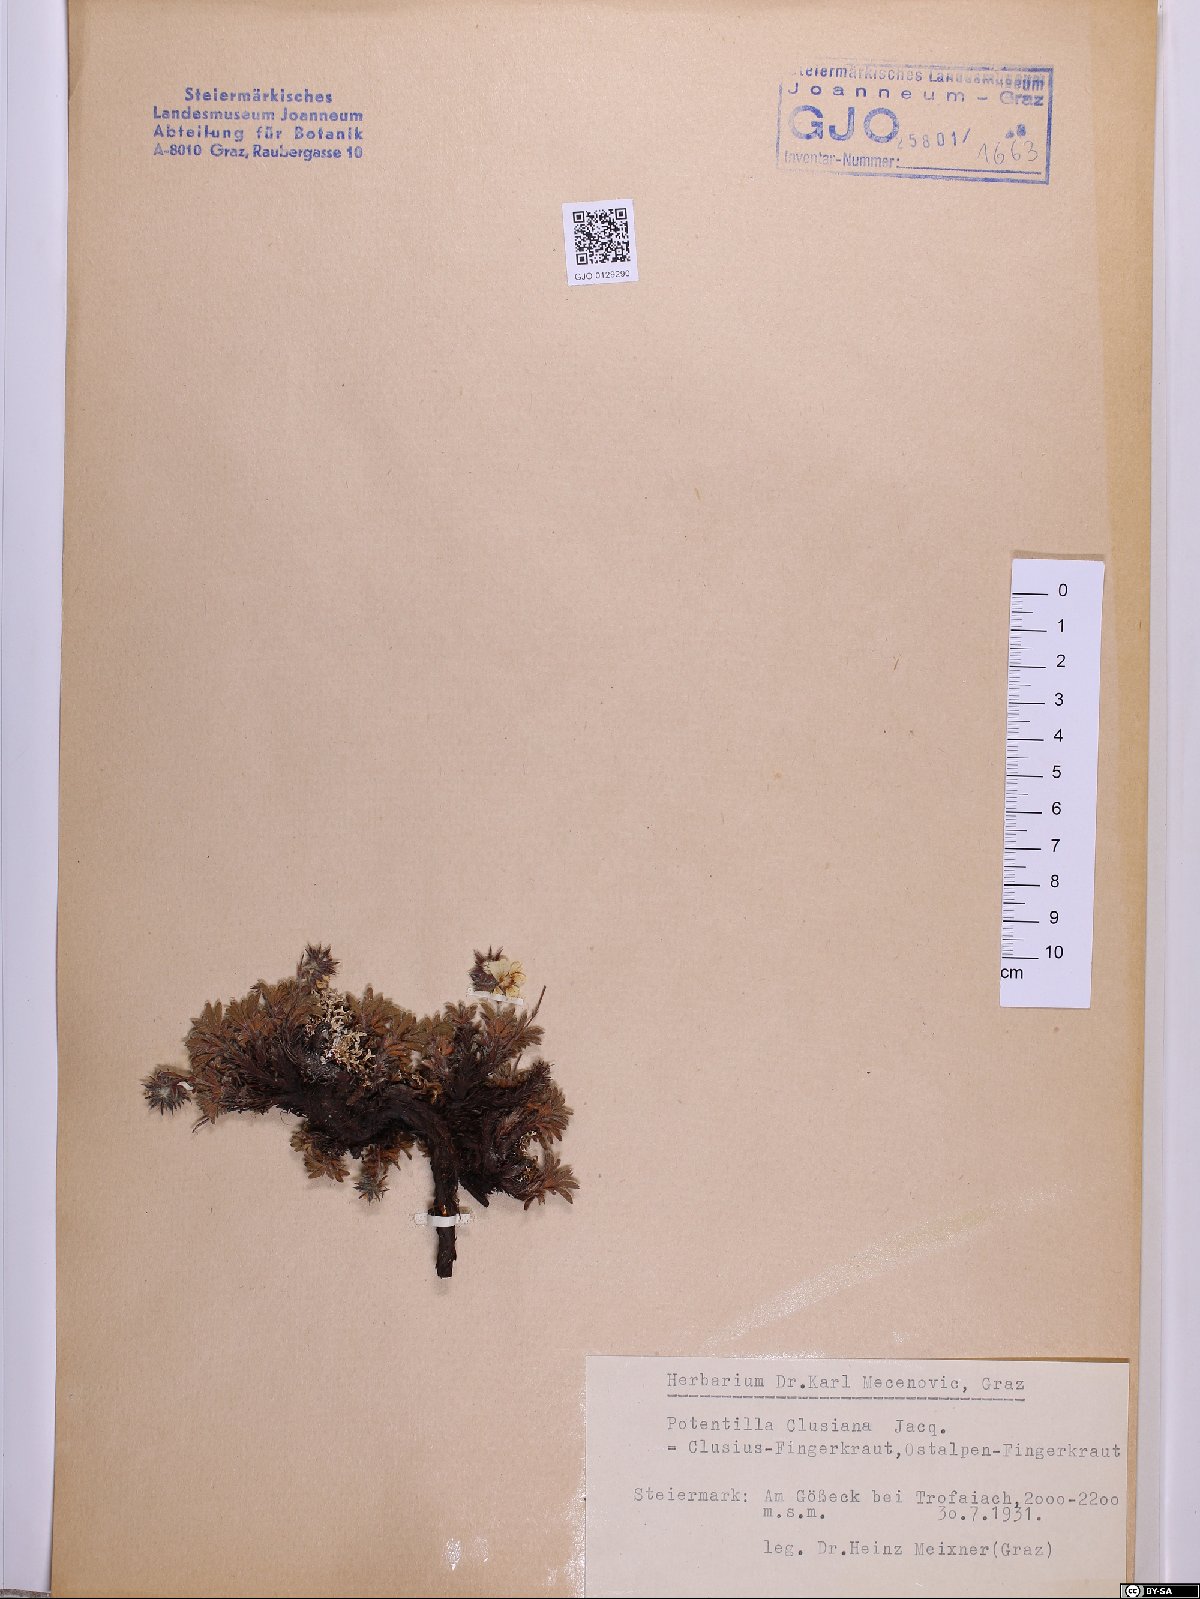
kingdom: Plantae
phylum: Tracheophyta
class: Magnoliopsida
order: Rosales
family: Rosaceae
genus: Potentilla
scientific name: Potentilla clusiana
